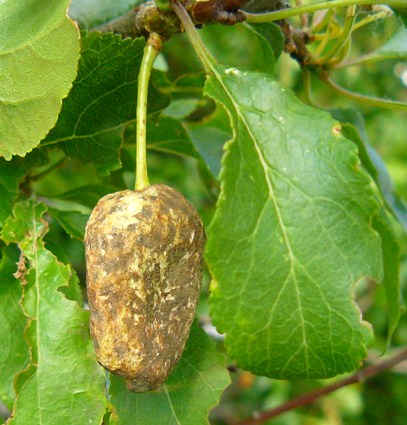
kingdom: Fungi
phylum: Ascomycota
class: Taphrinomycetes
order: Taphrinales
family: Taphrinaceae
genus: Taphrina
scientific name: Taphrina pruni
